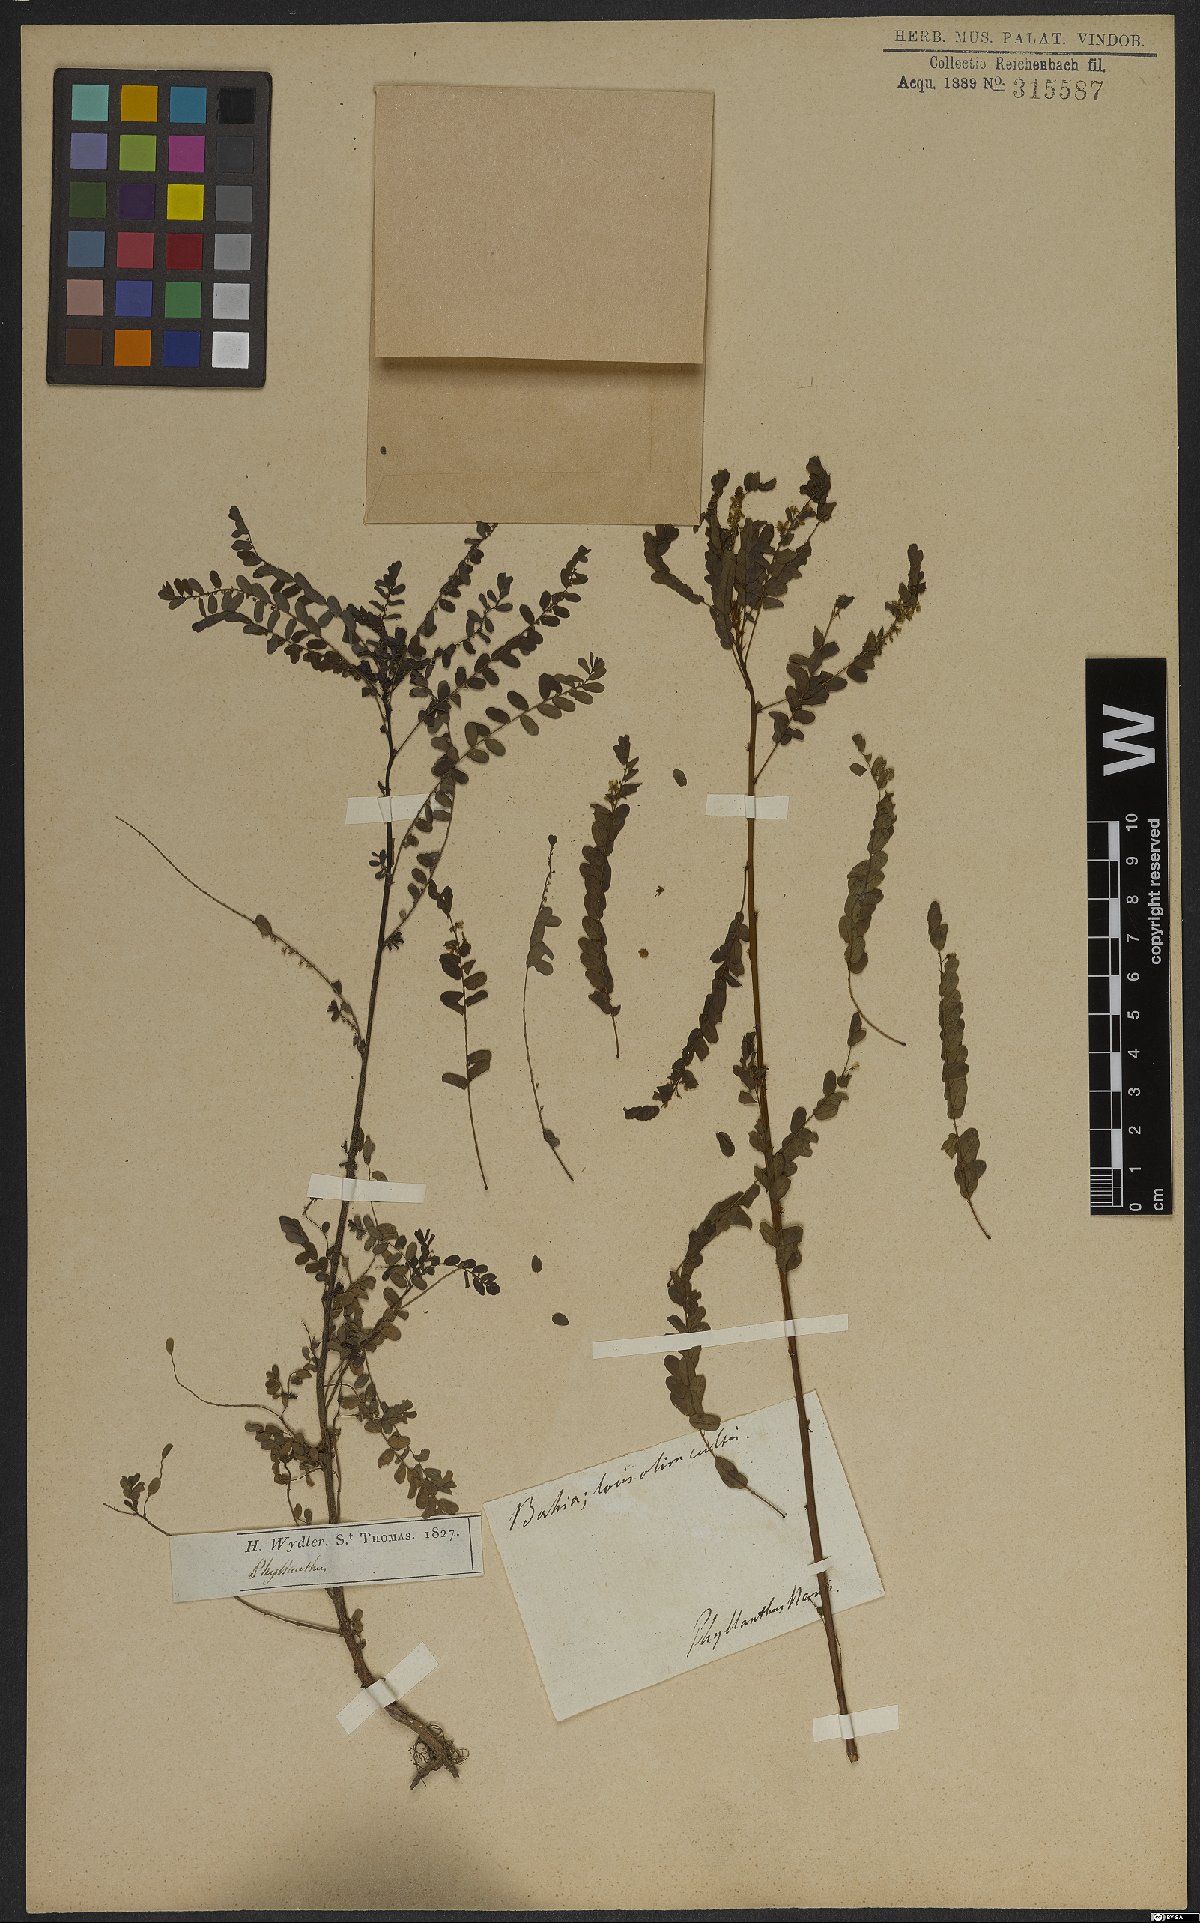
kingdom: Plantae
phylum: Tracheophyta
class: Magnoliopsida
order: Malpighiales
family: Phyllanthaceae
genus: Phyllanthus
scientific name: Phyllanthus
